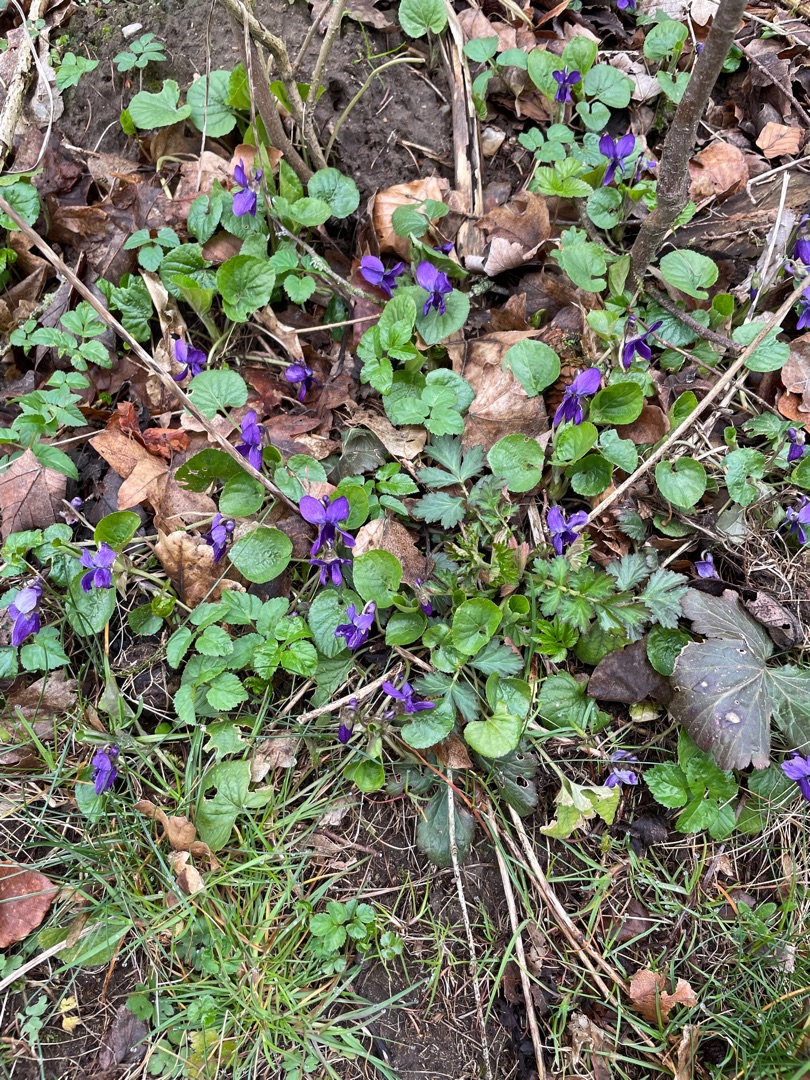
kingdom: Plantae
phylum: Tracheophyta
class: Magnoliopsida
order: Malpighiales
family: Violaceae
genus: Viola
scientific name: Viola odorata
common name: Marts-viol
